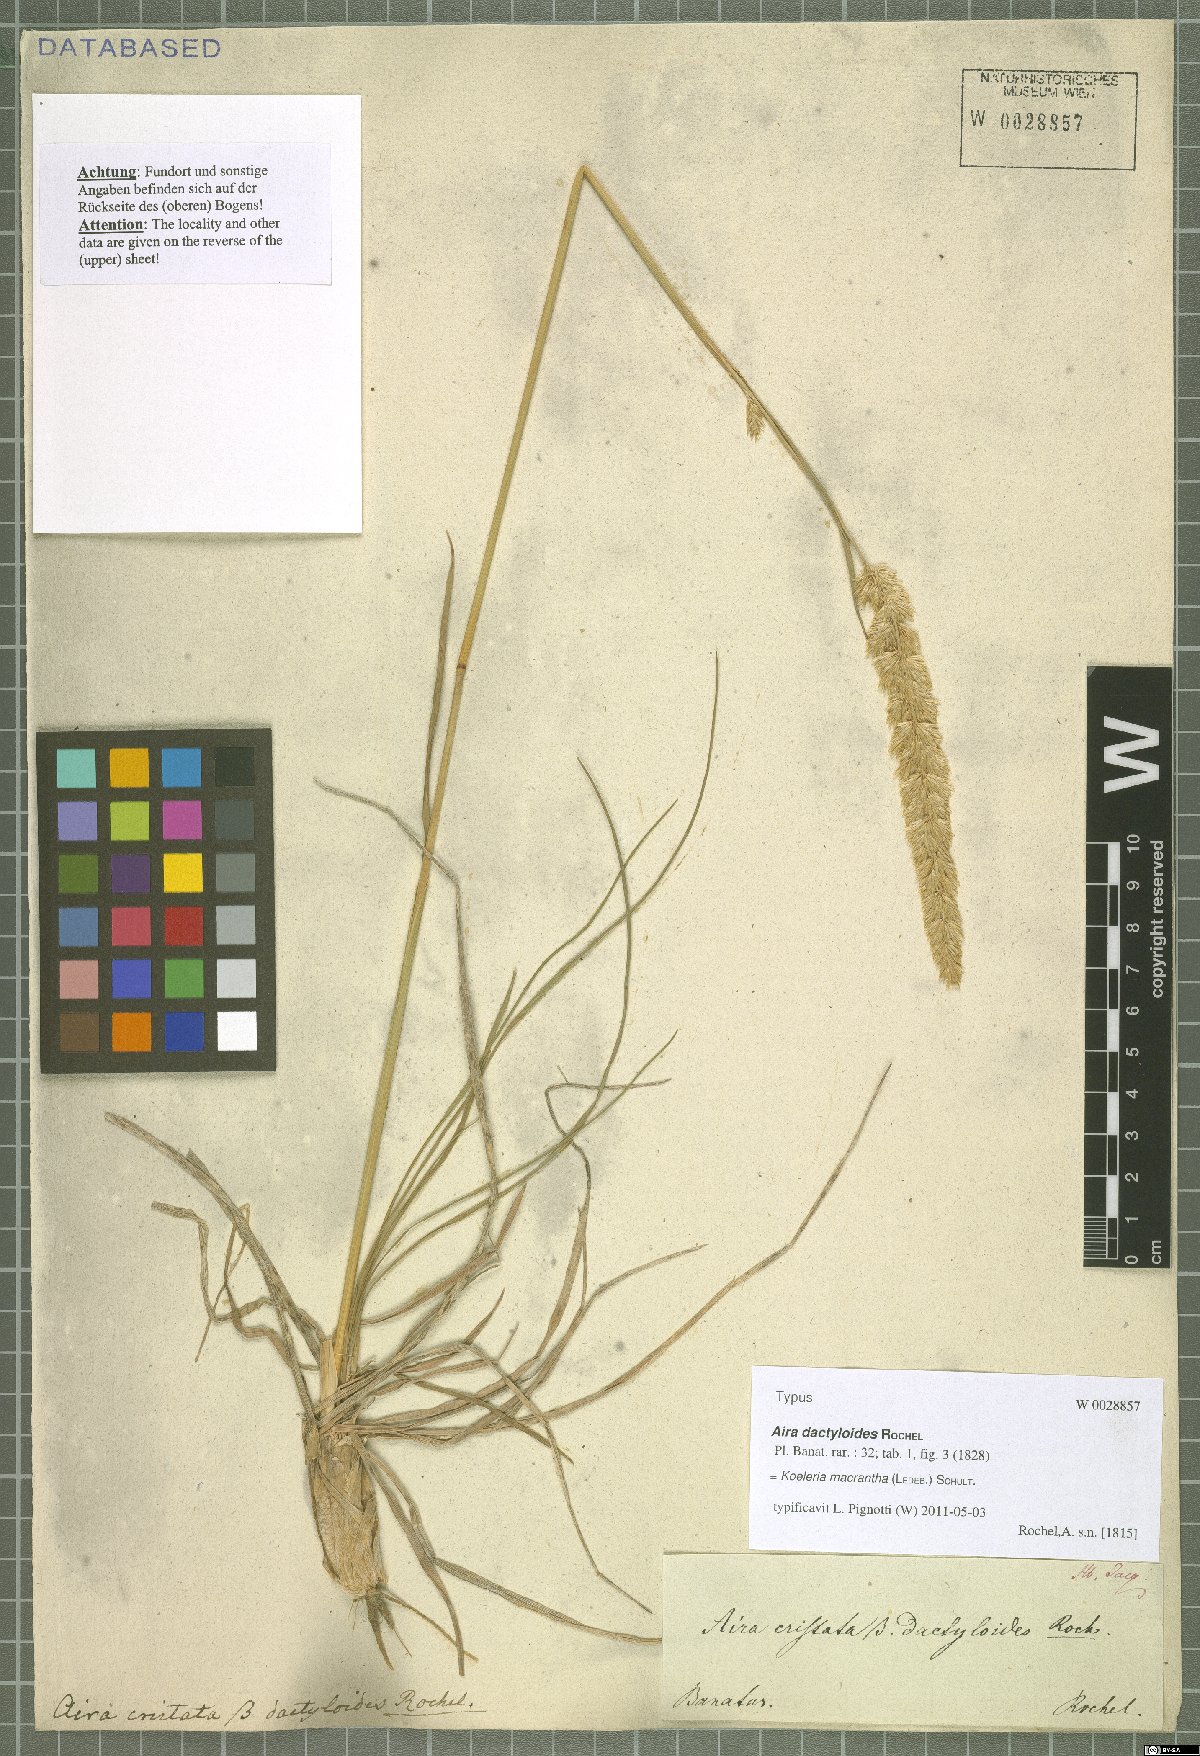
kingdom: Plantae
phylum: Tracheophyta
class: Liliopsida
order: Poales
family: Poaceae
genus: Koeleria
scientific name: Koeleria macrantha
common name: Crested hair-grass
